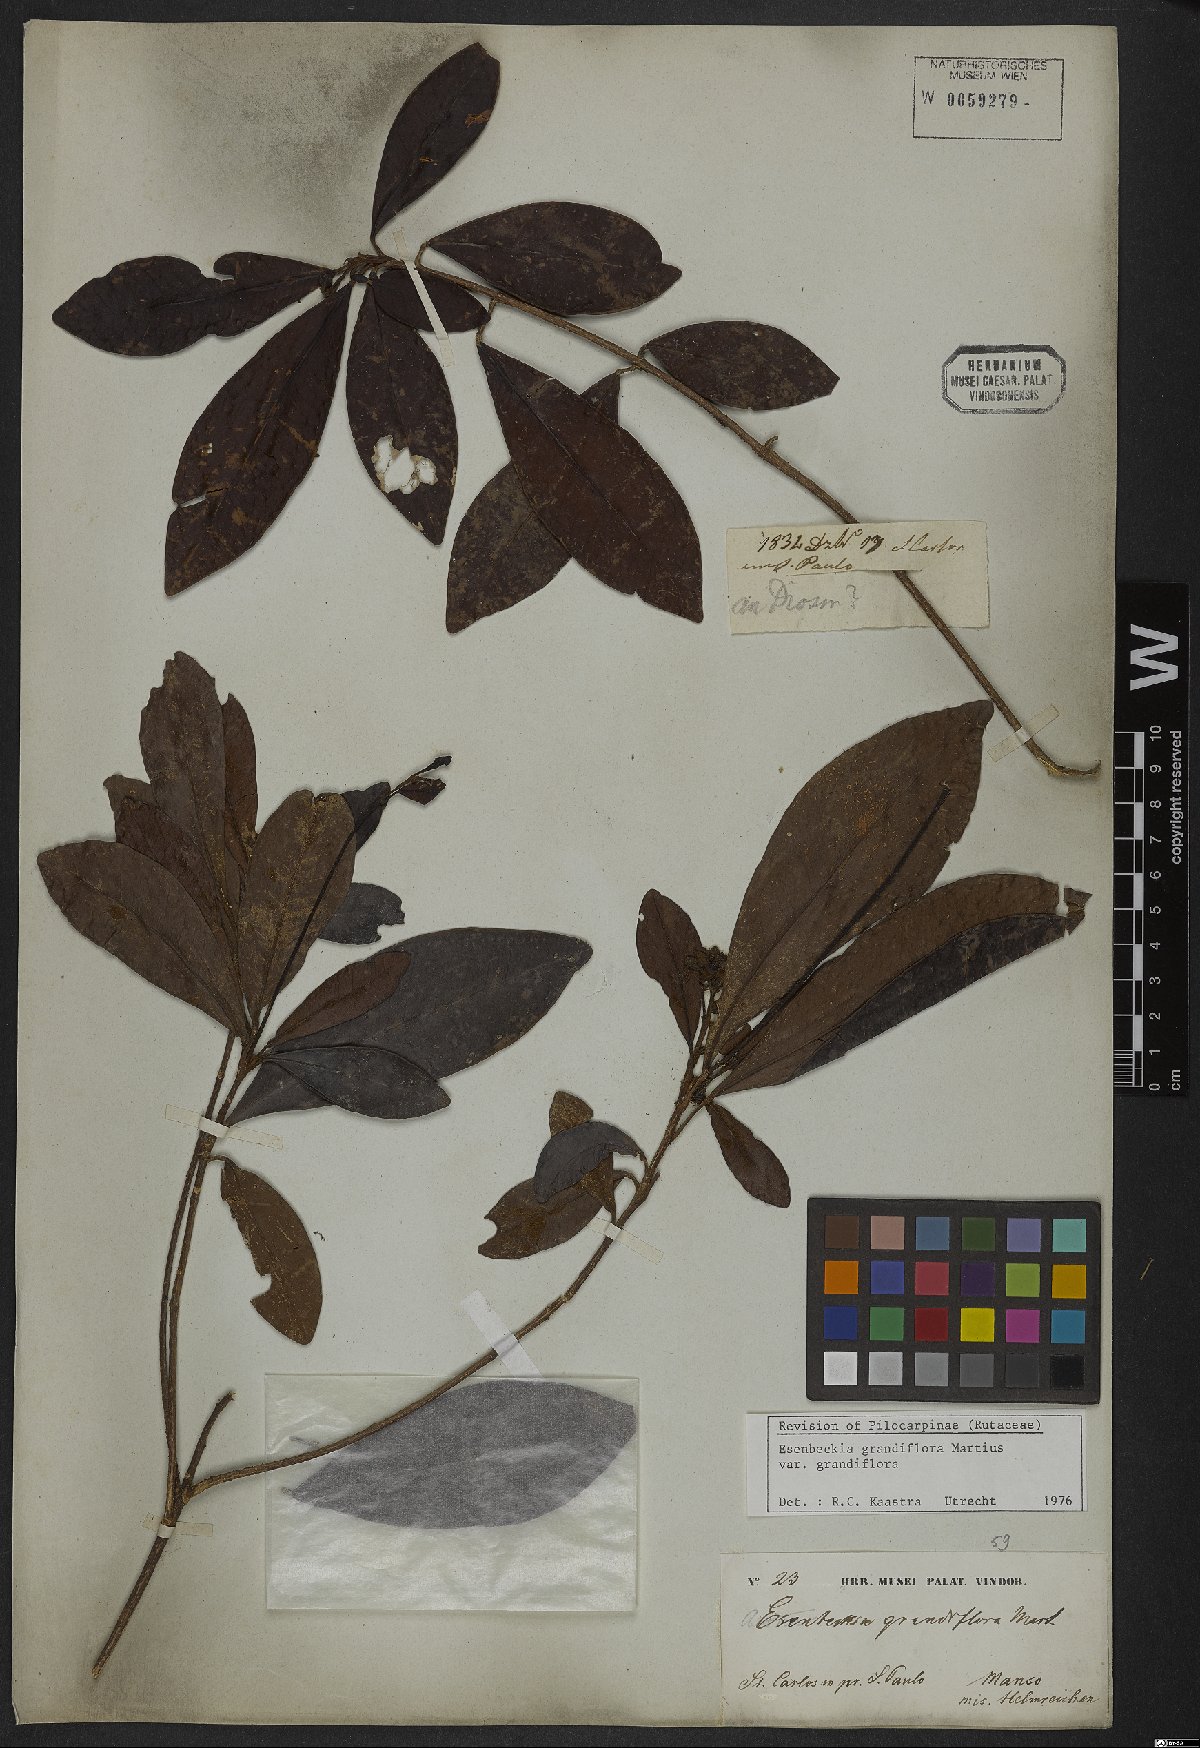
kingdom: Plantae
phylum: Tracheophyta
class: Magnoliopsida
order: Sapindales
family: Rutaceae
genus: Esenbeckia
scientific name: Esenbeckia grandiflora
